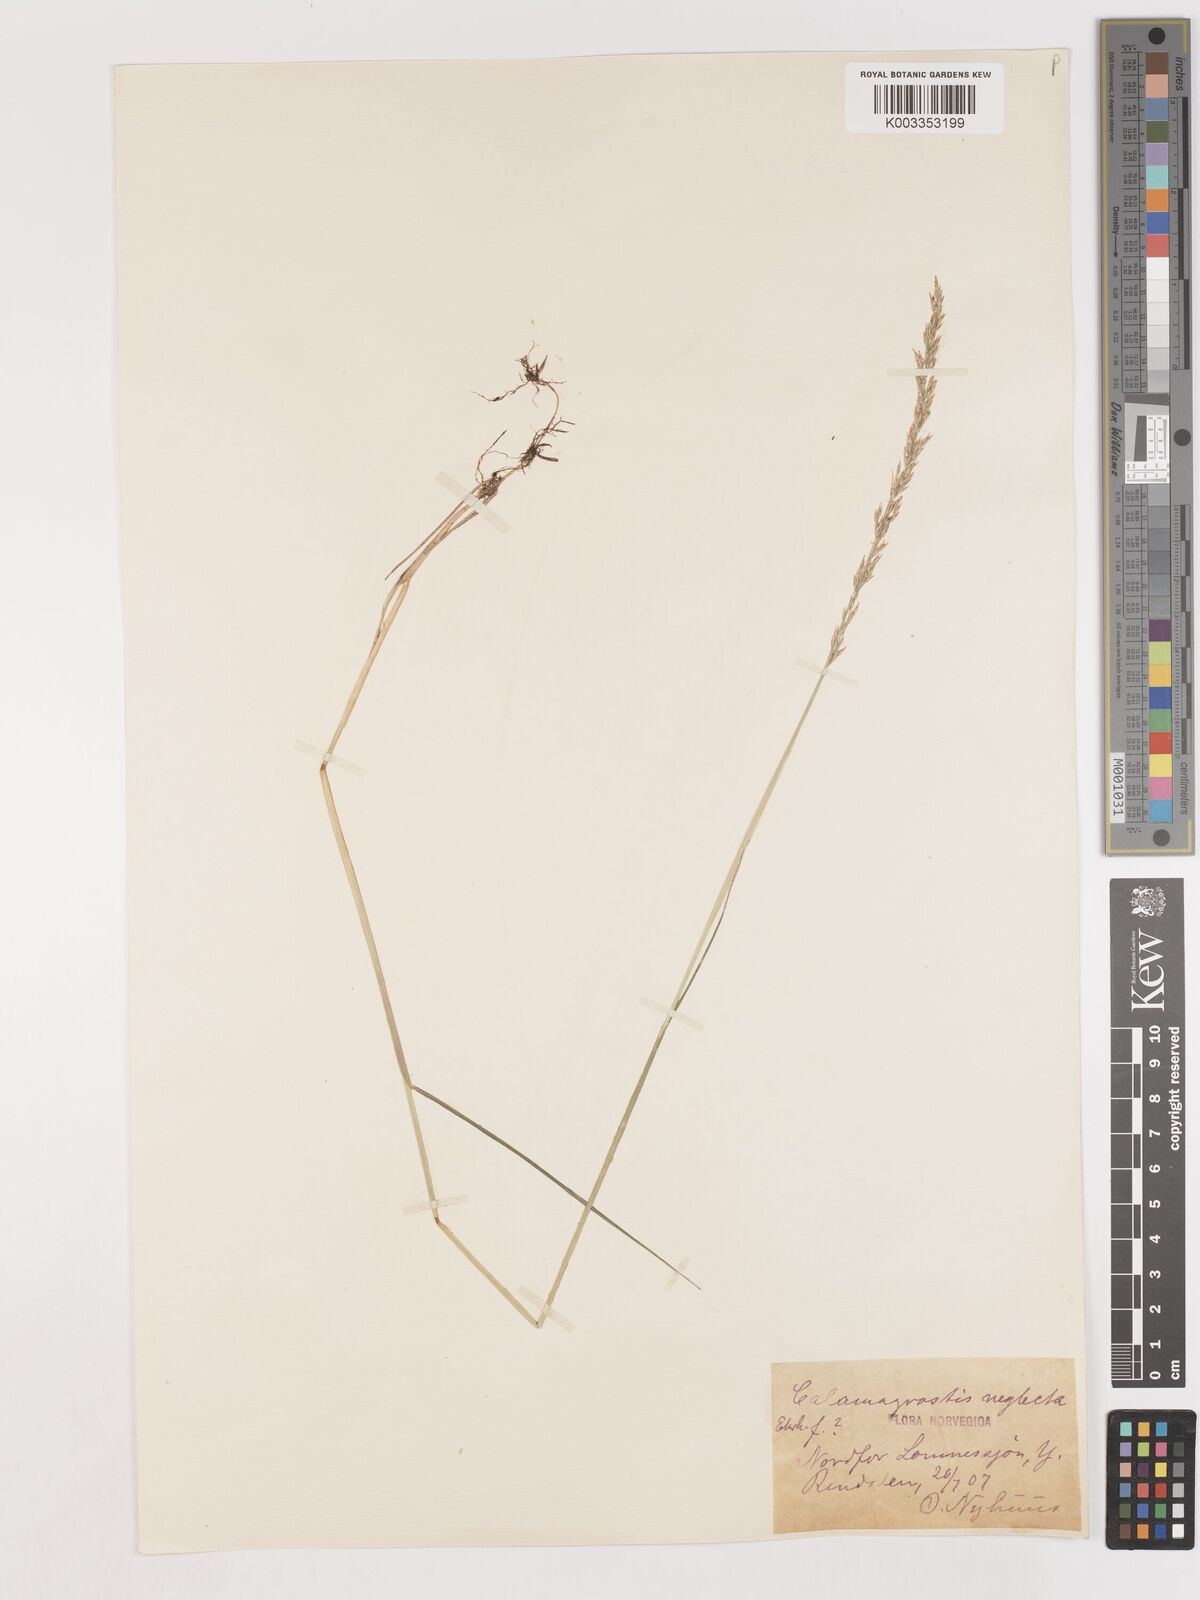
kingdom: Plantae
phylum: Tracheophyta
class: Liliopsida
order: Poales
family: Poaceae
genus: Cinnagrostis
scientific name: Cinnagrostis recta
